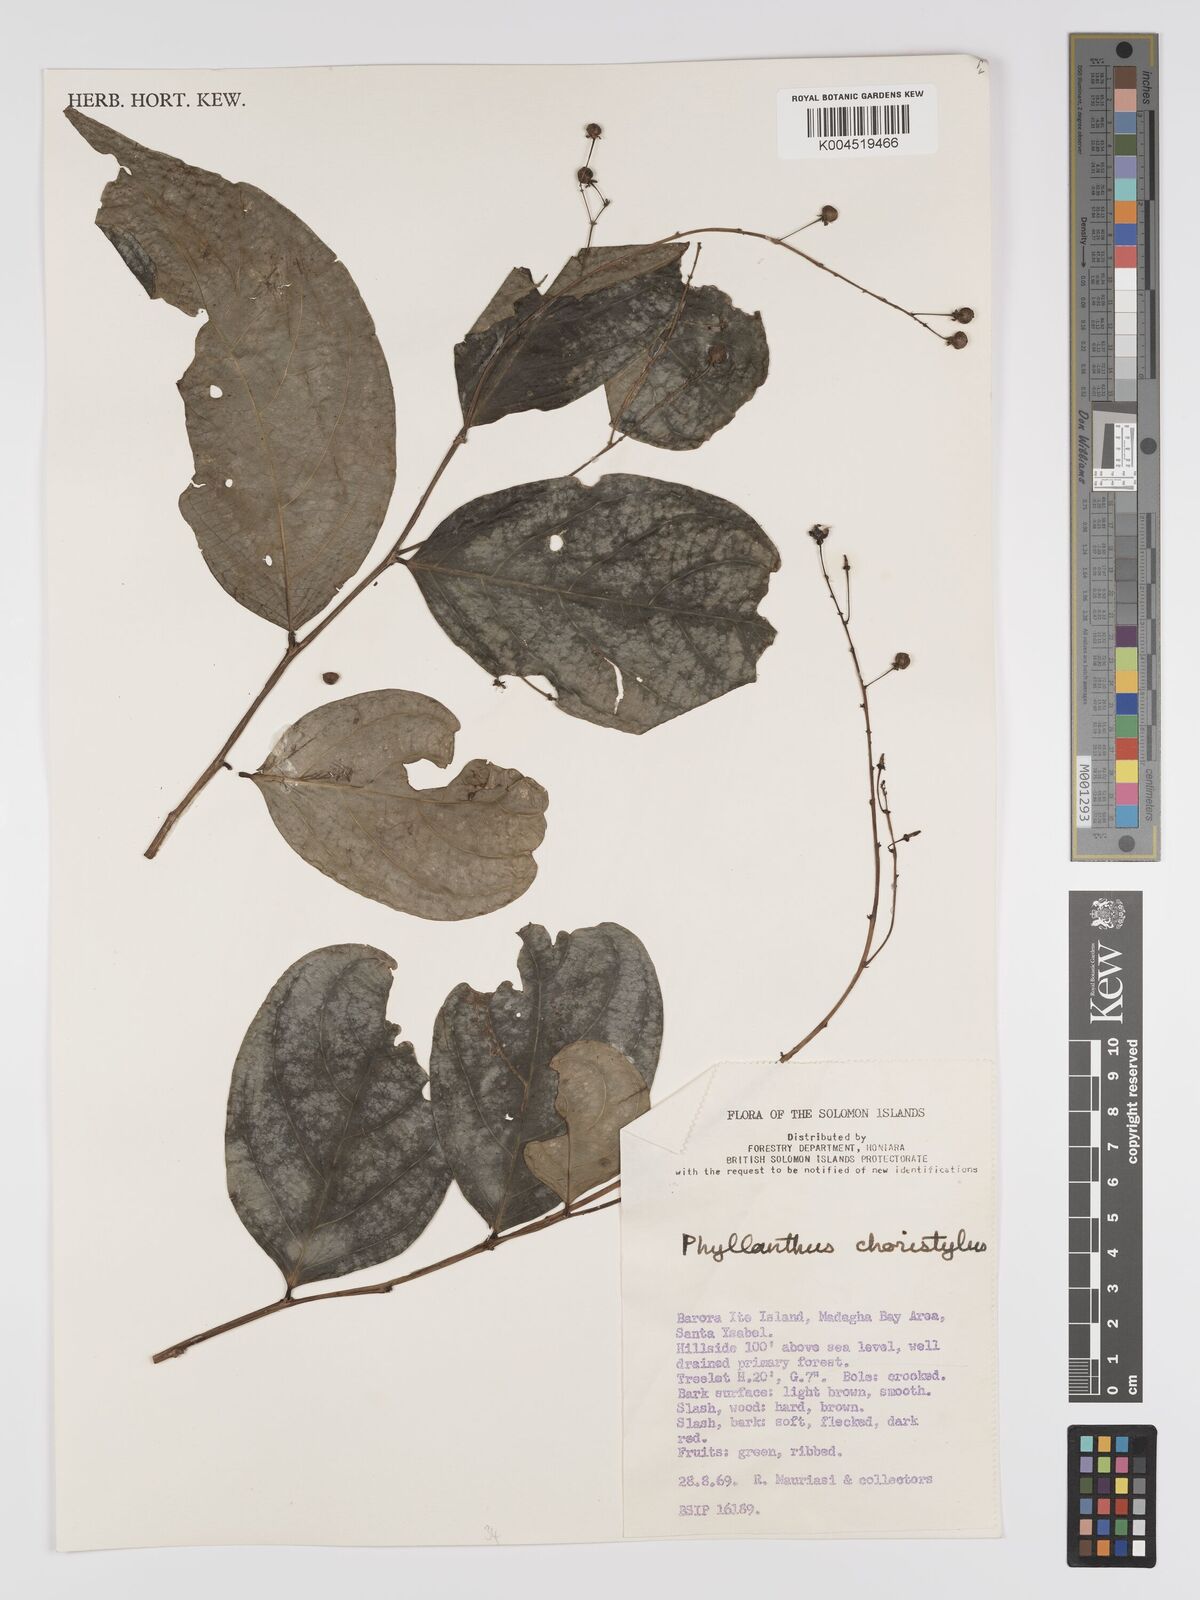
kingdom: Plantae
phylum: Tracheophyta
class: Magnoliopsida
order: Malpighiales
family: Phyllanthaceae
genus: Phyllanthus
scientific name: Phyllanthus clamboides
